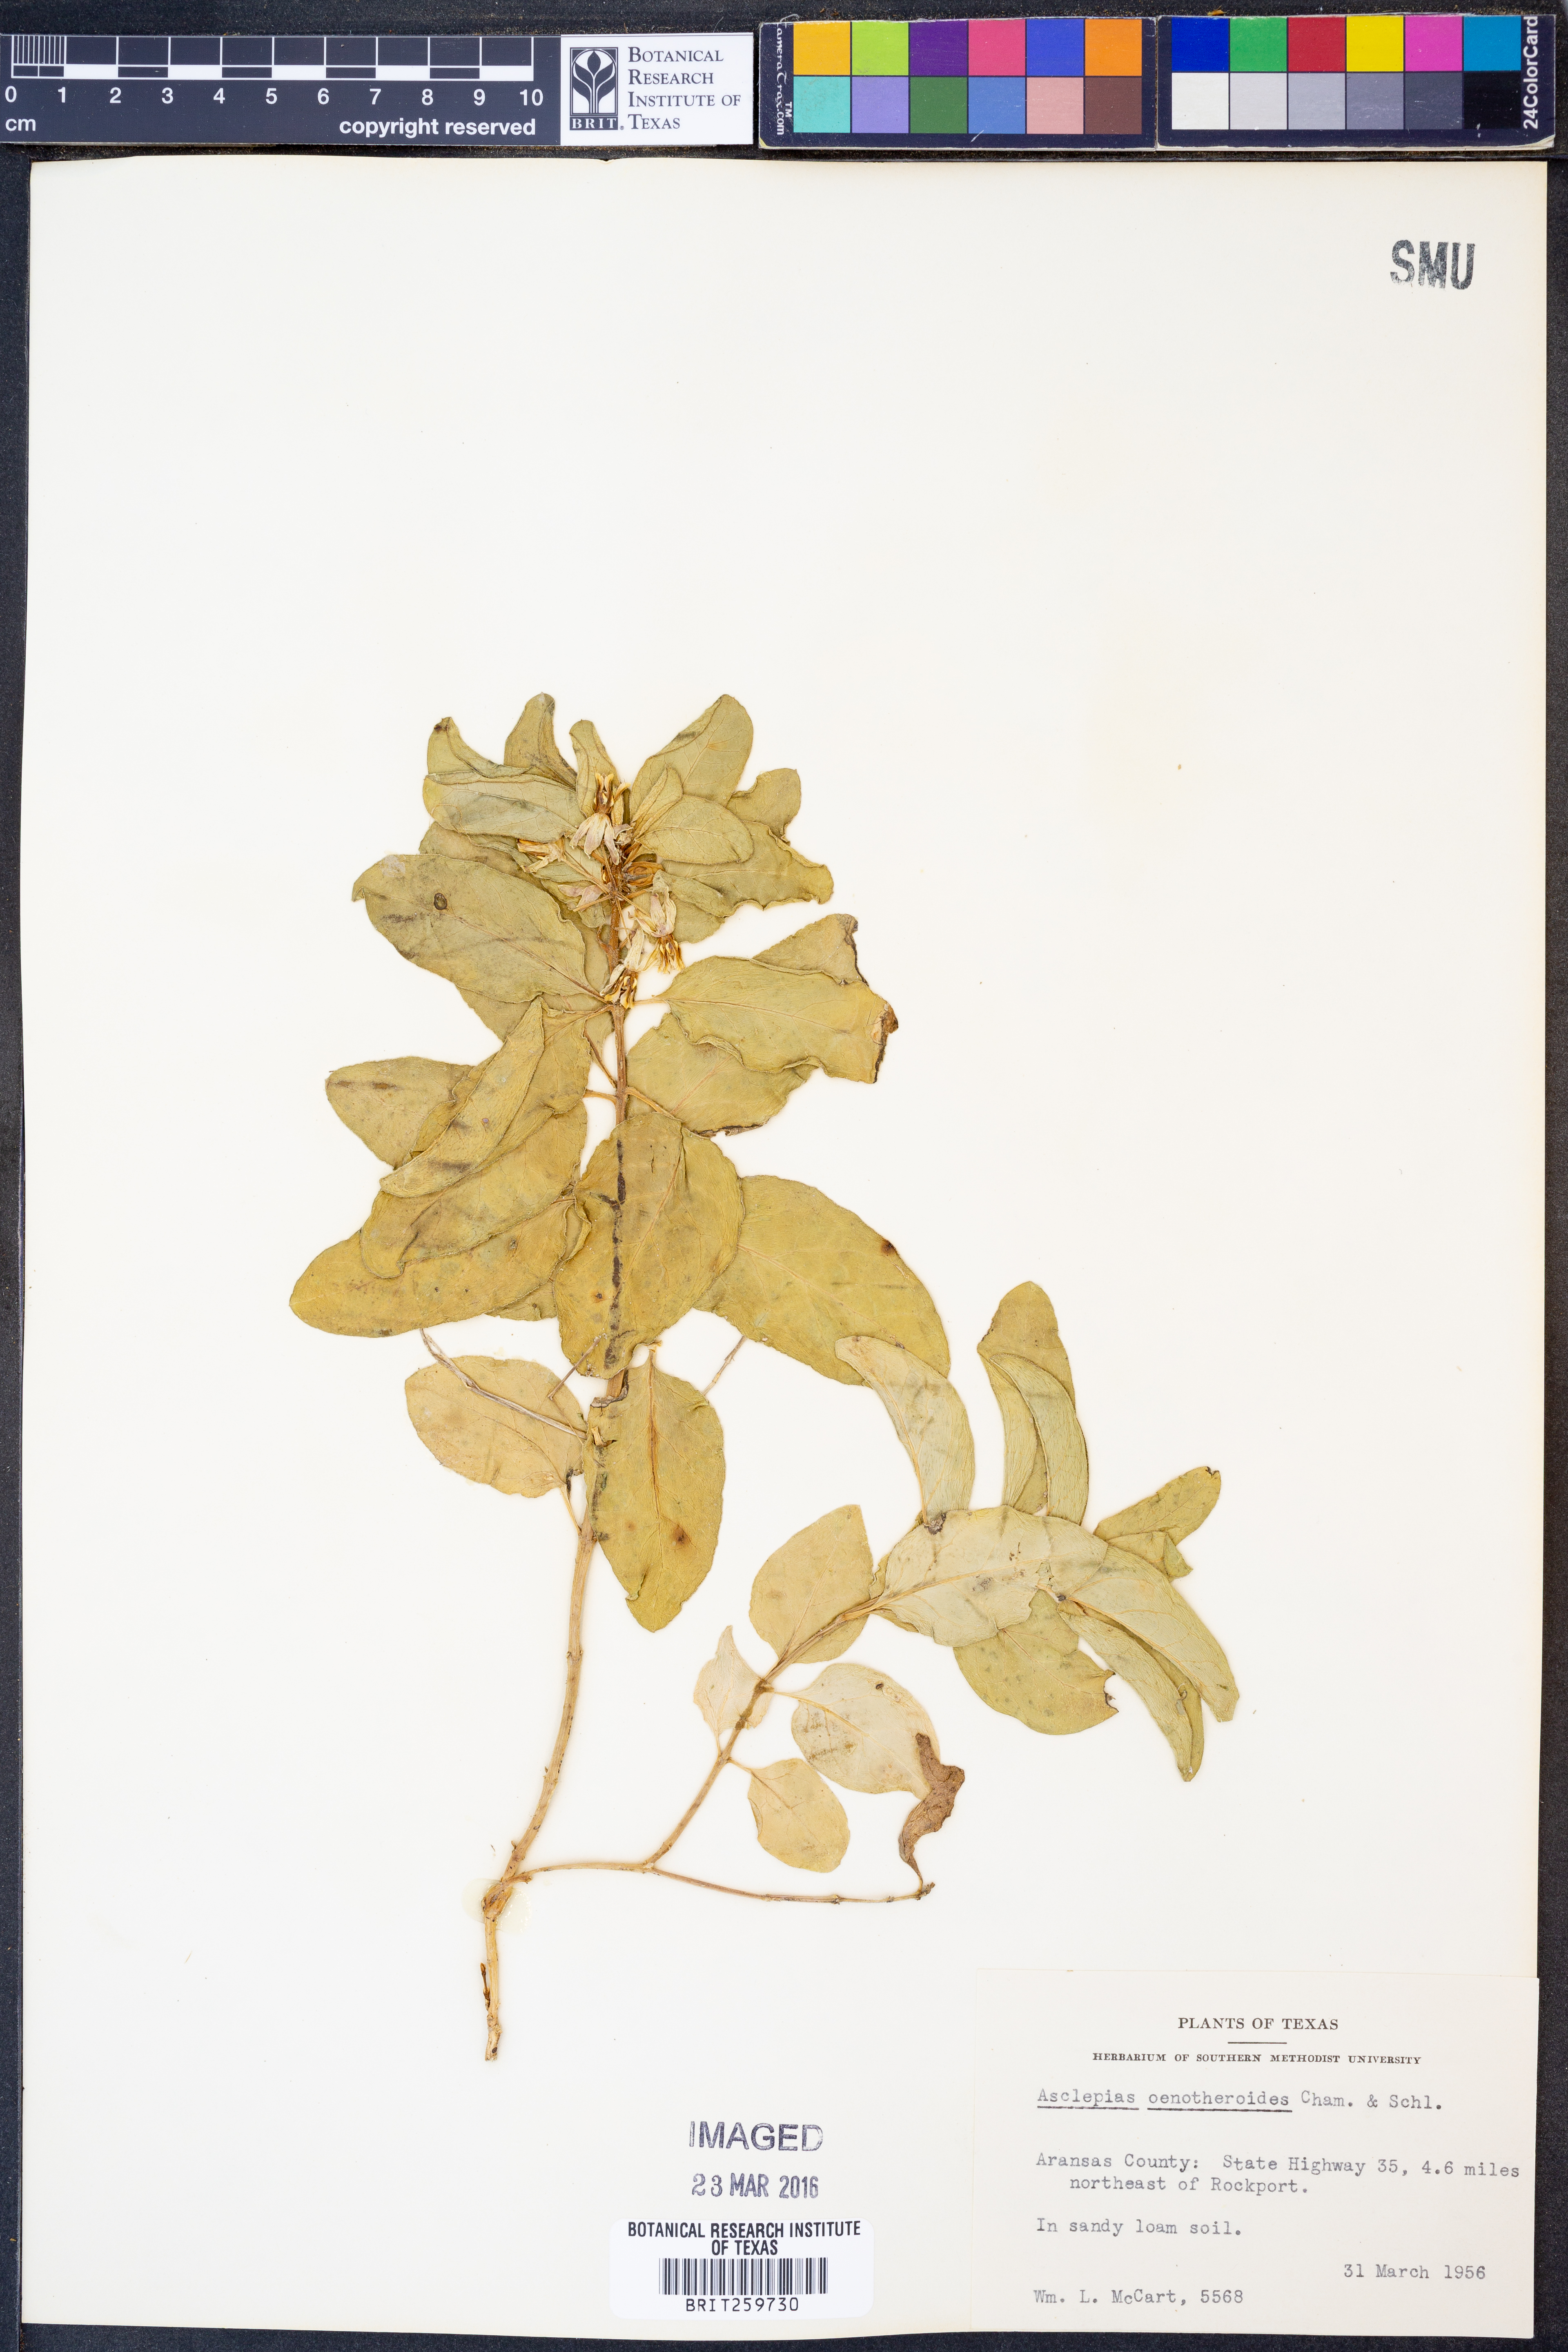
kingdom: Plantae
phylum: Tracheophyta
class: Magnoliopsida
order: Gentianales
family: Apocynaceae
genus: Asclepias
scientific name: Asclepias oenotheroides
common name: Zizotes milkweed
